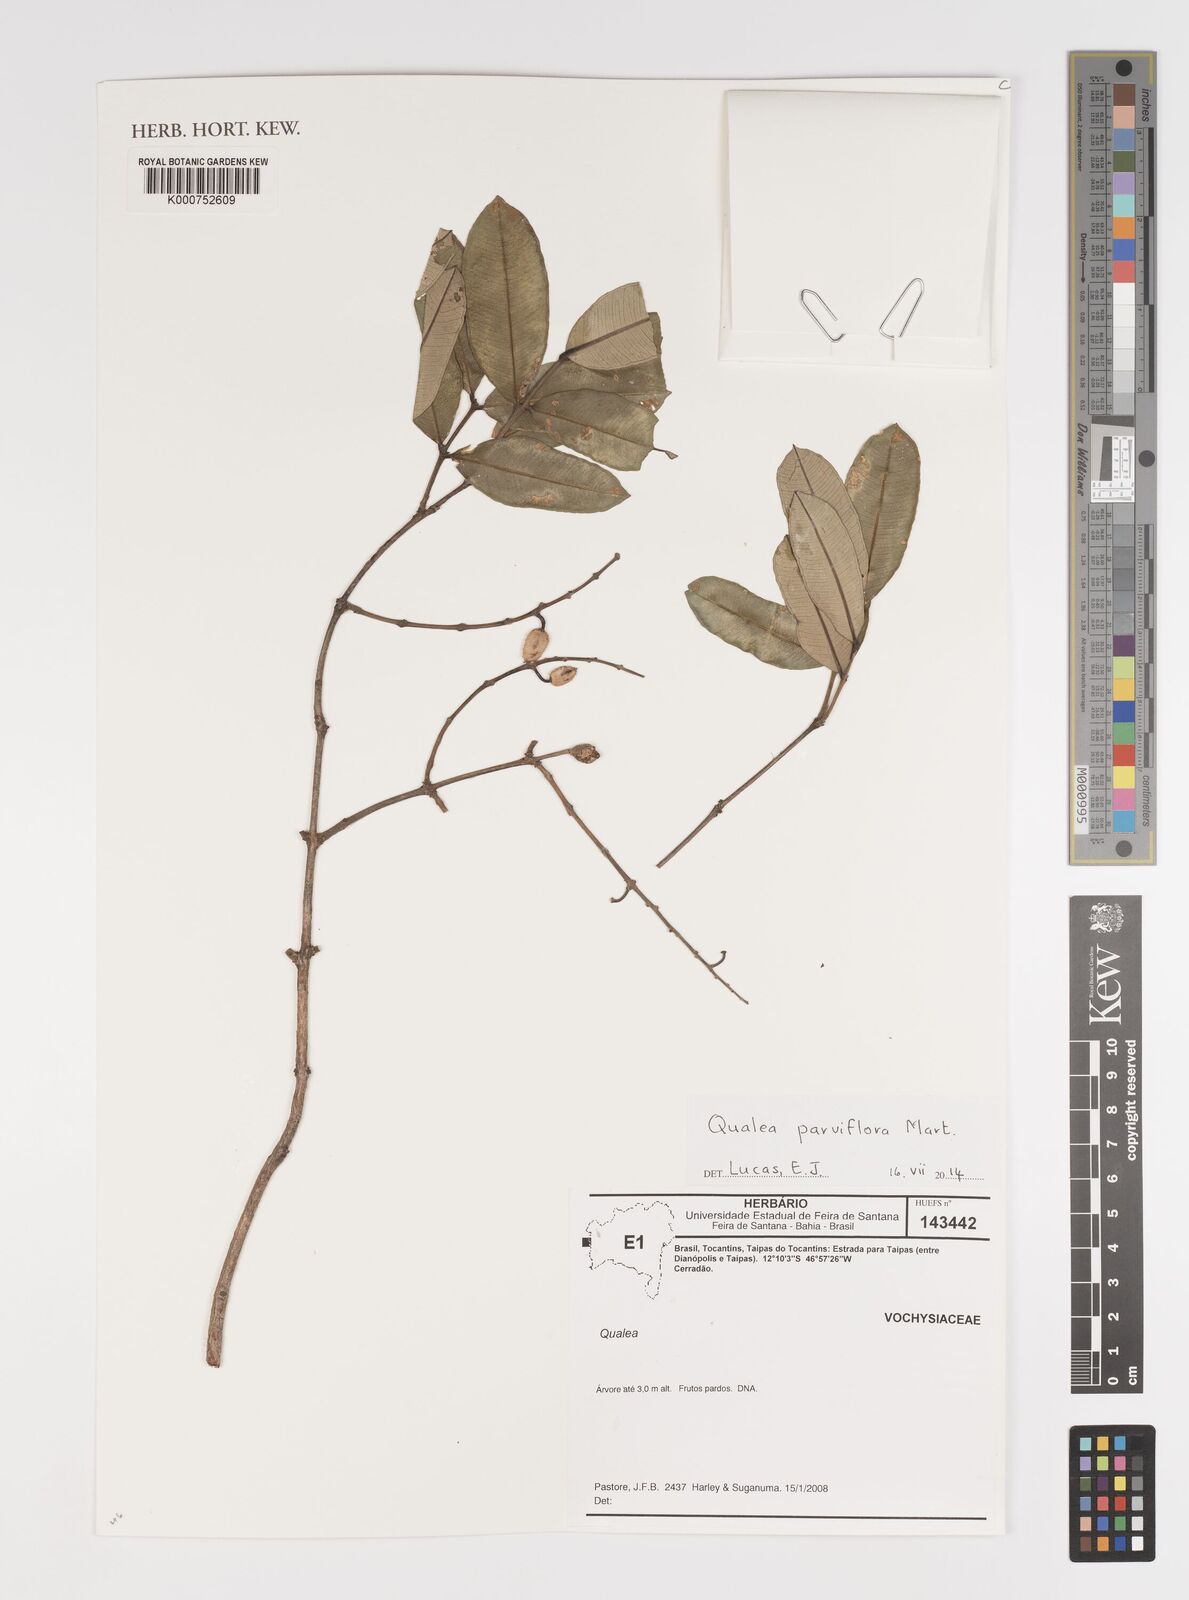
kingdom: Plantae
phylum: Tracheophyta
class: Magnoliopsida
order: Myrtales
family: Vochysiaceae
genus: Qualea
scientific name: Qualea parviflora
